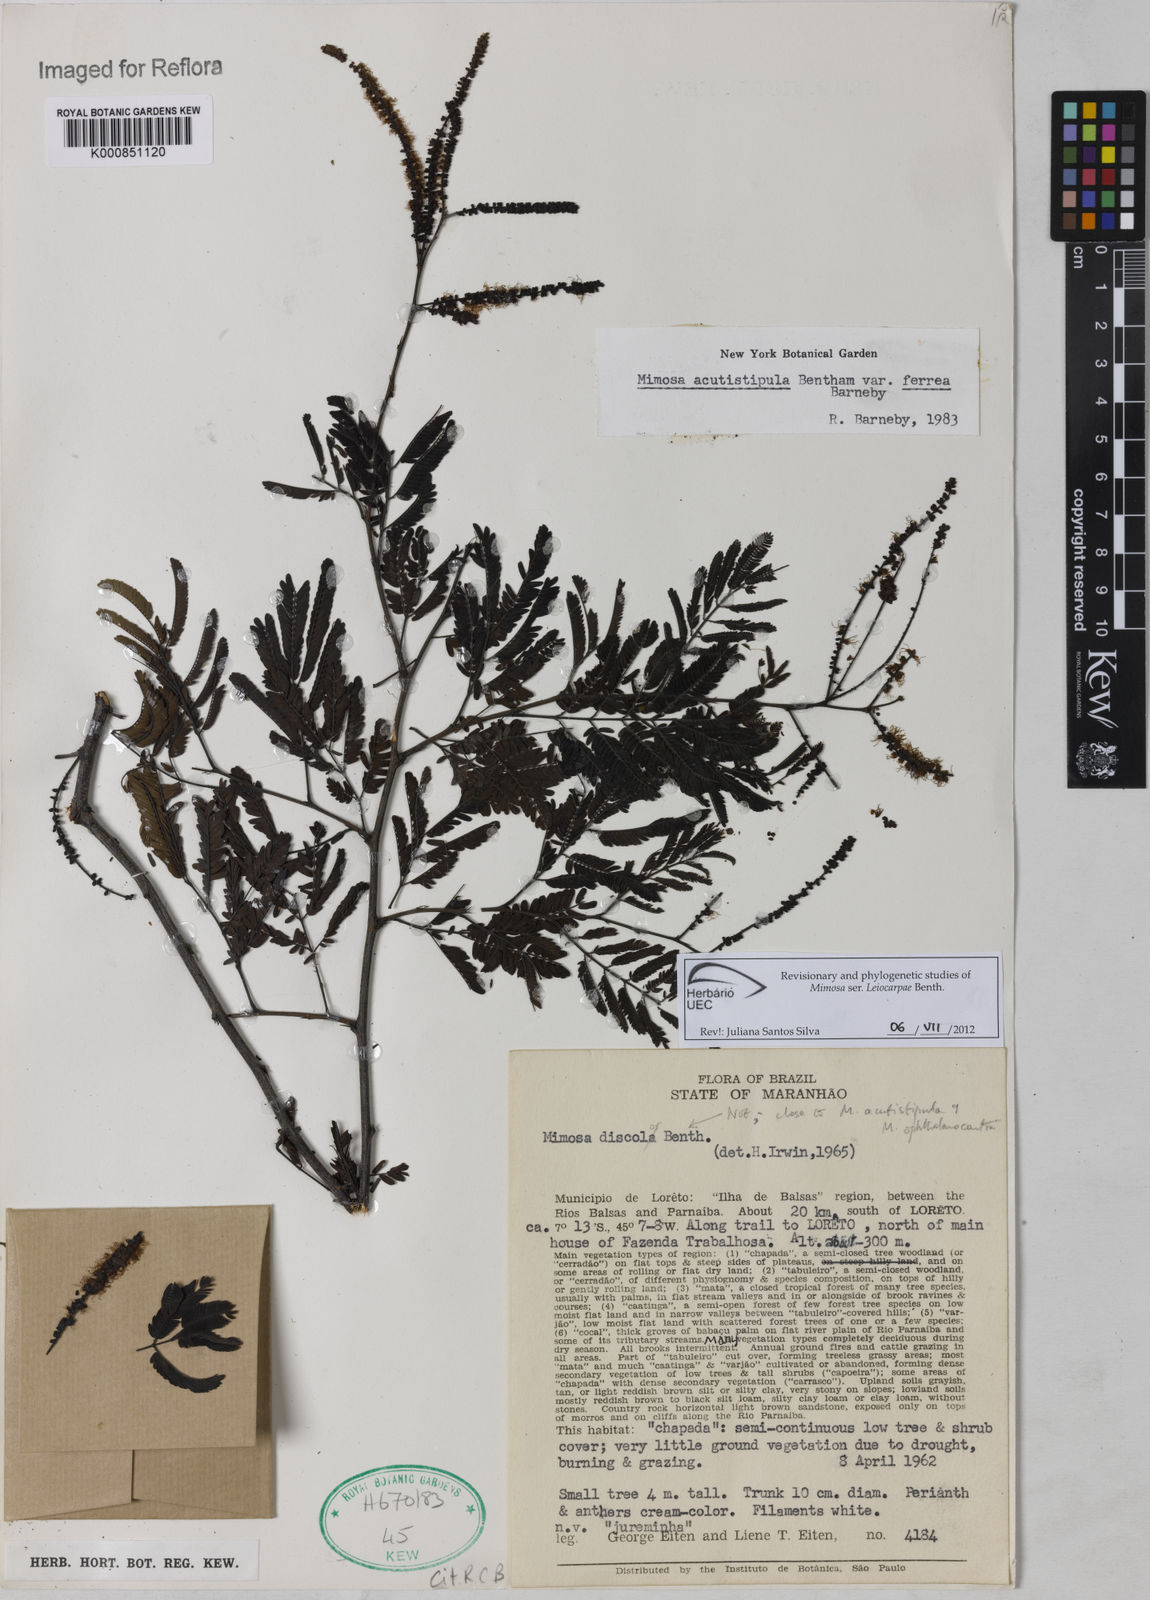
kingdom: Plantae
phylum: Tracheophyta
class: Magnoliopsida
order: Fabales
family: Fabaceae
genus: Mimosa
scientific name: Mimosa acutistipula
